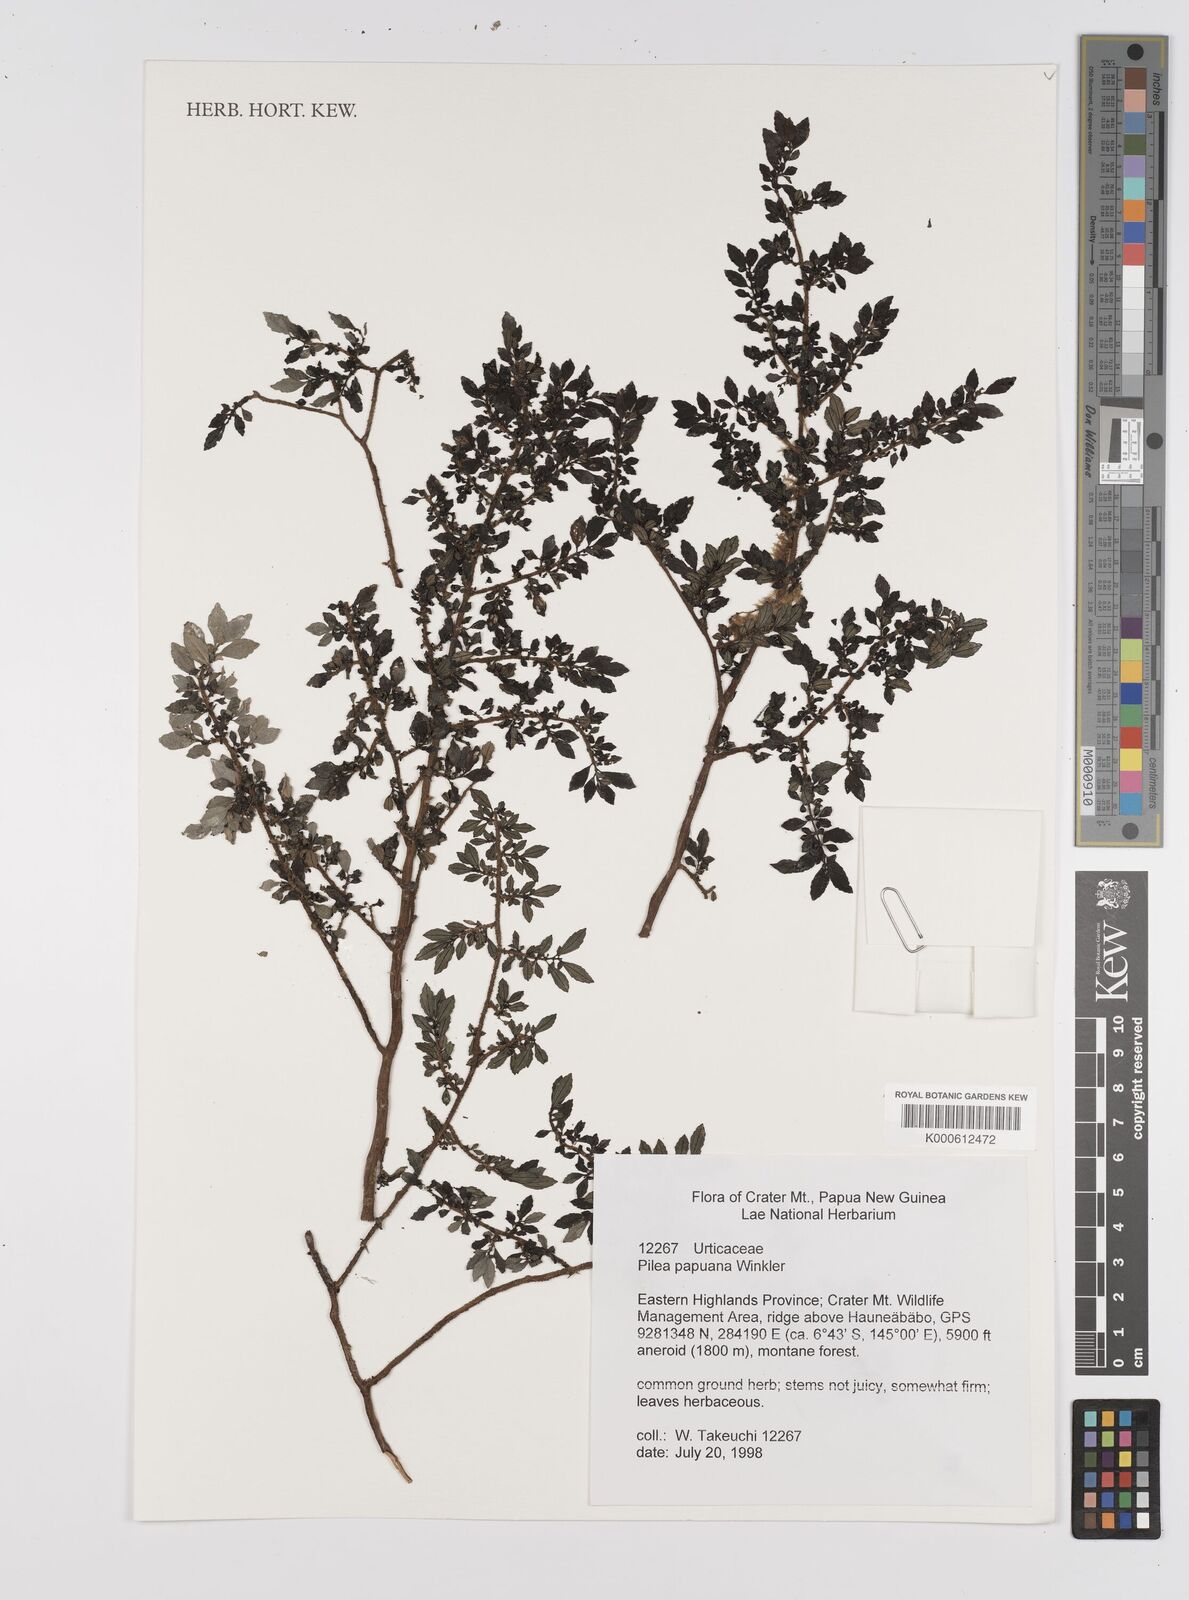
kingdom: Plantae
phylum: Tracheophyta
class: Magnoliopsida
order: Rosales
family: Urticaceae
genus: Pilea
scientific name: Pilea papuana
